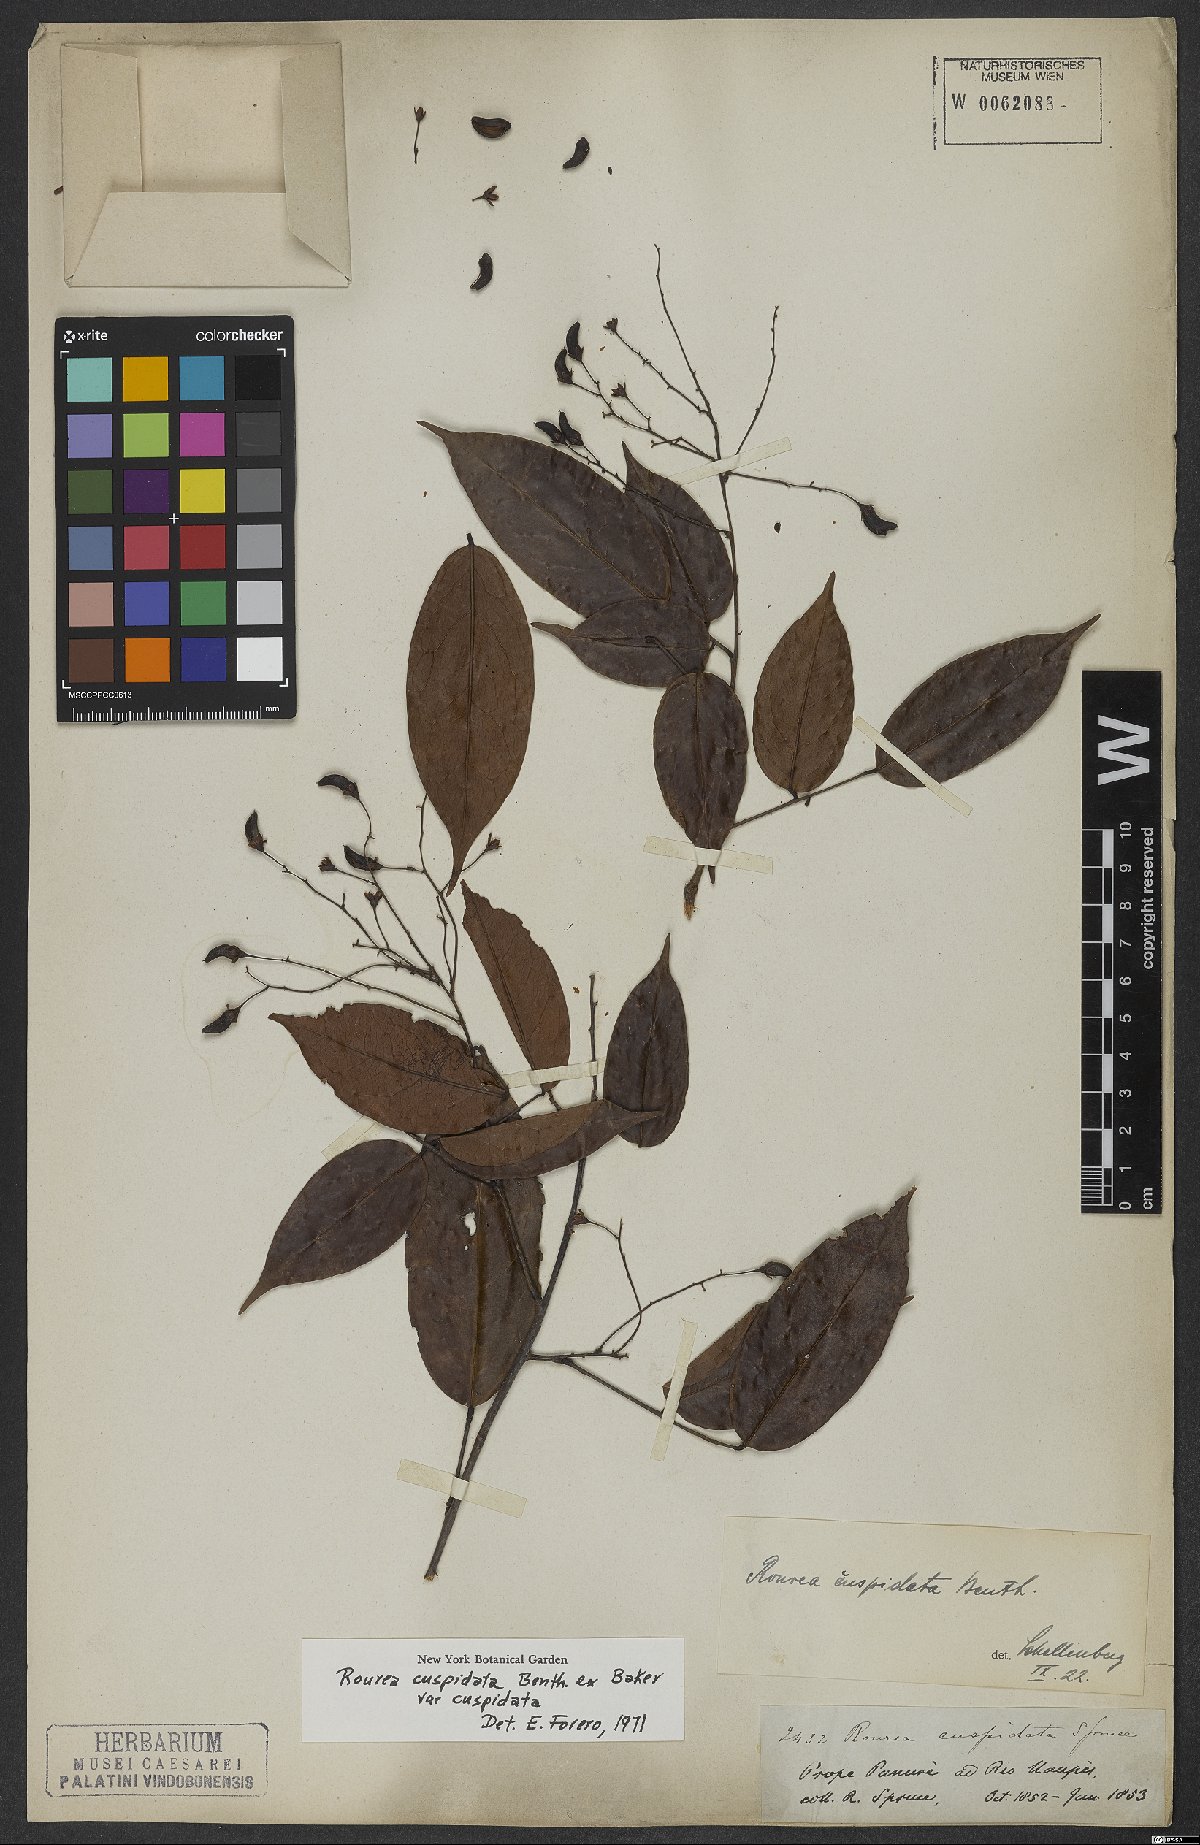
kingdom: Plantae
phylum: Tracheophyta
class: Magnoliopsida
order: Oxalidales
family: Connaraceae
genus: Rourea
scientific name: Rourea cuspidata
